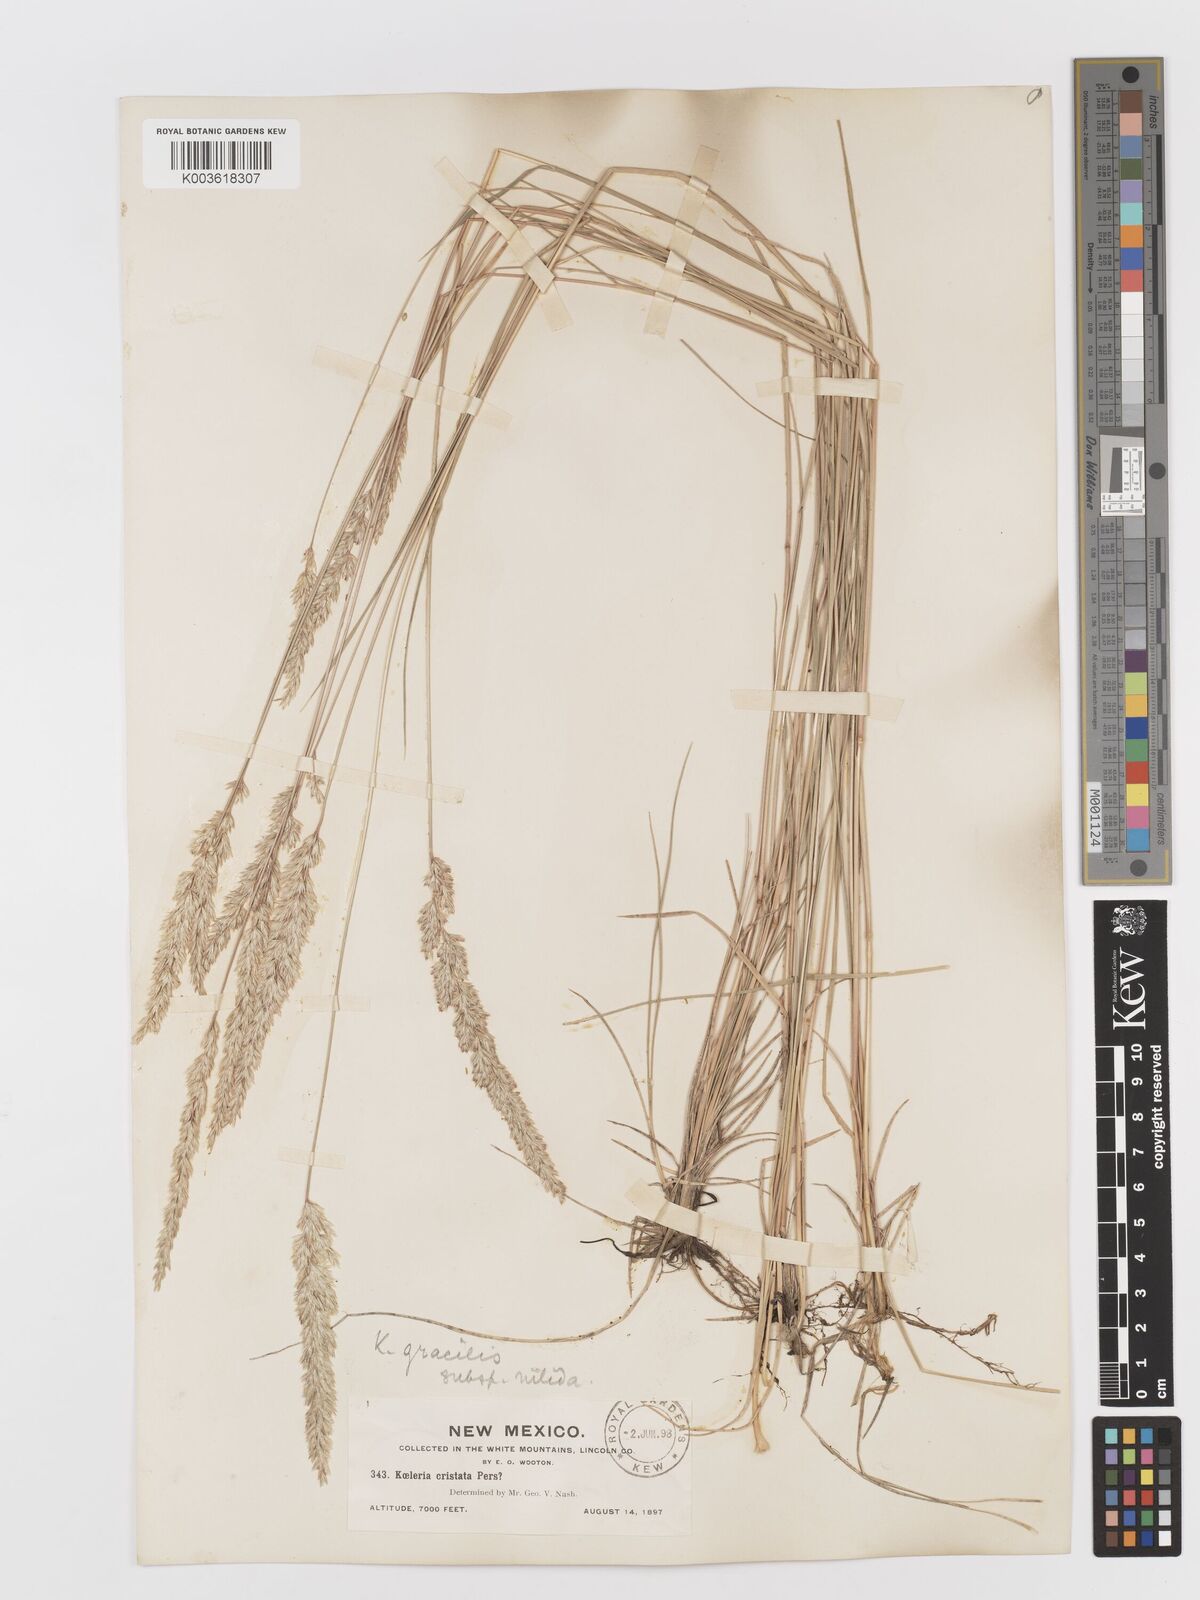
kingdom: Plantae
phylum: Tracheophyta
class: Liliopsida
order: Poales
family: Poaceae
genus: Koeleria
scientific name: Koeleria macrantha
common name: Crested hair-grass
